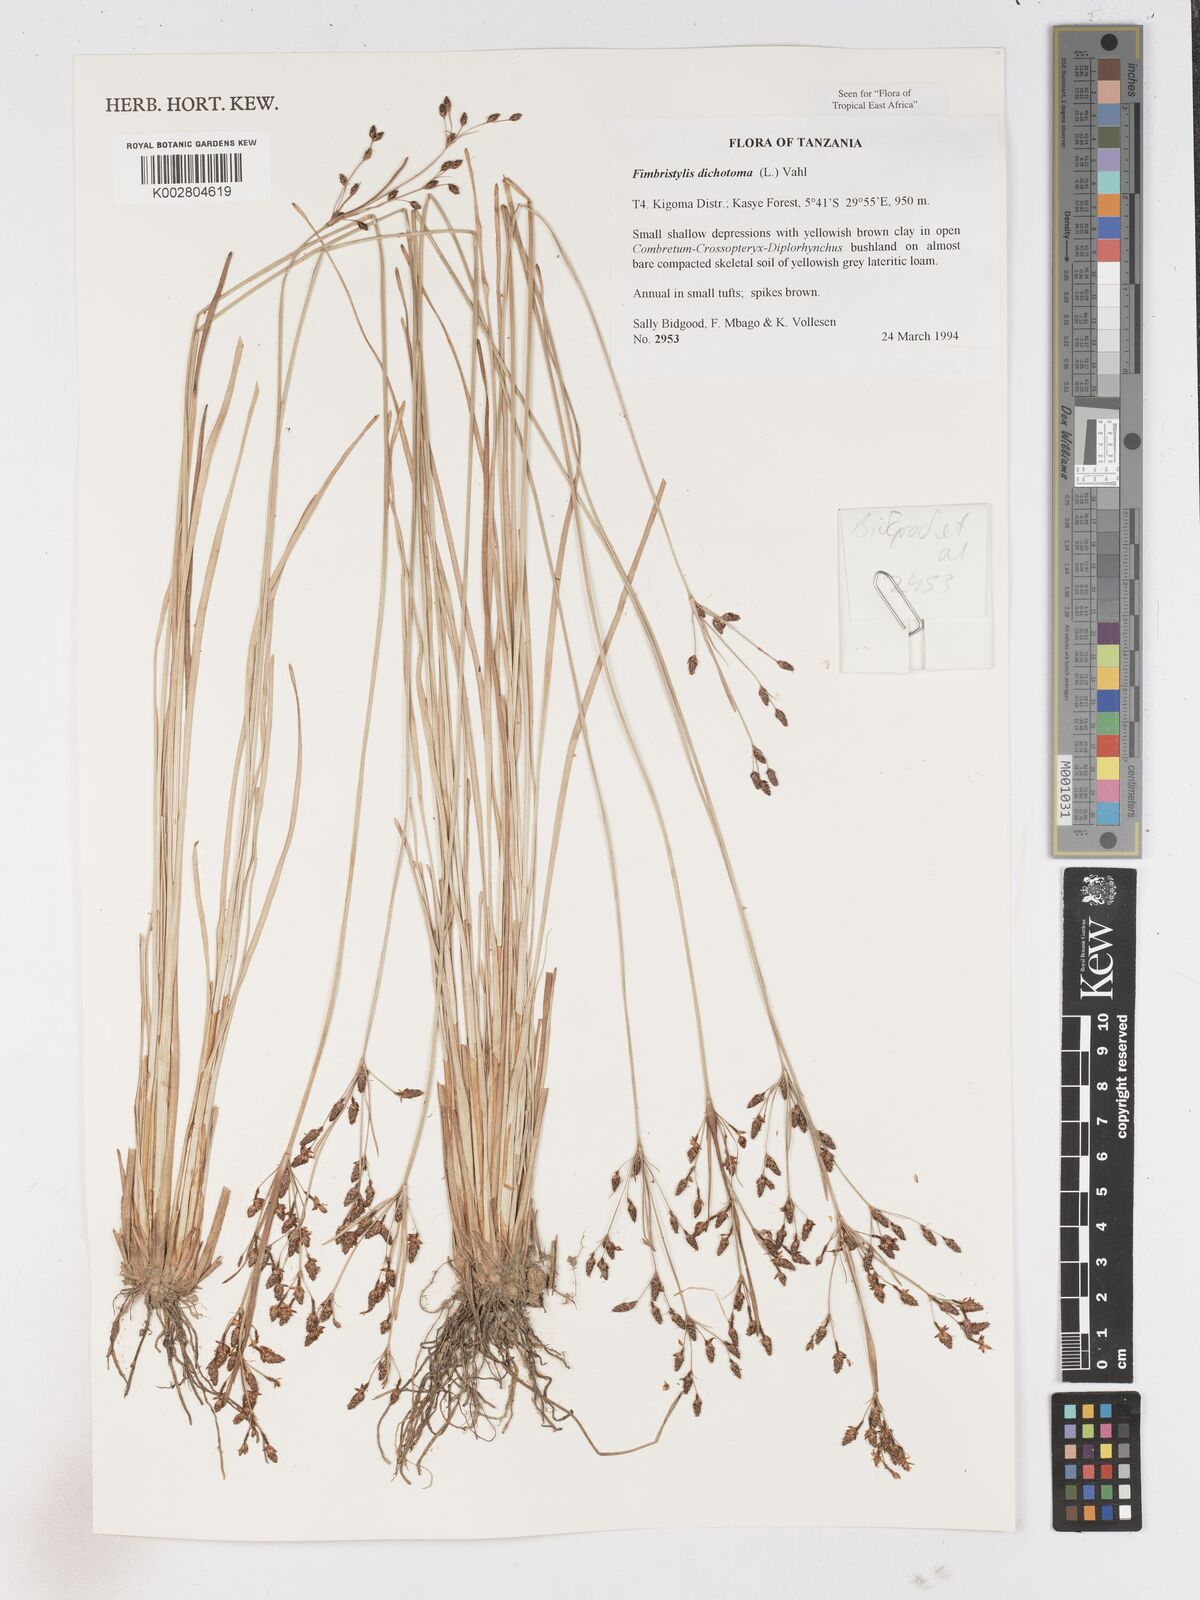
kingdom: Plantae
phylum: Tracheophyta
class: Liliopsida
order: Poales
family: Cyperaceae
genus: Fimbristylis
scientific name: Fimbristylis dichotoma
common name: Forked fimbry
